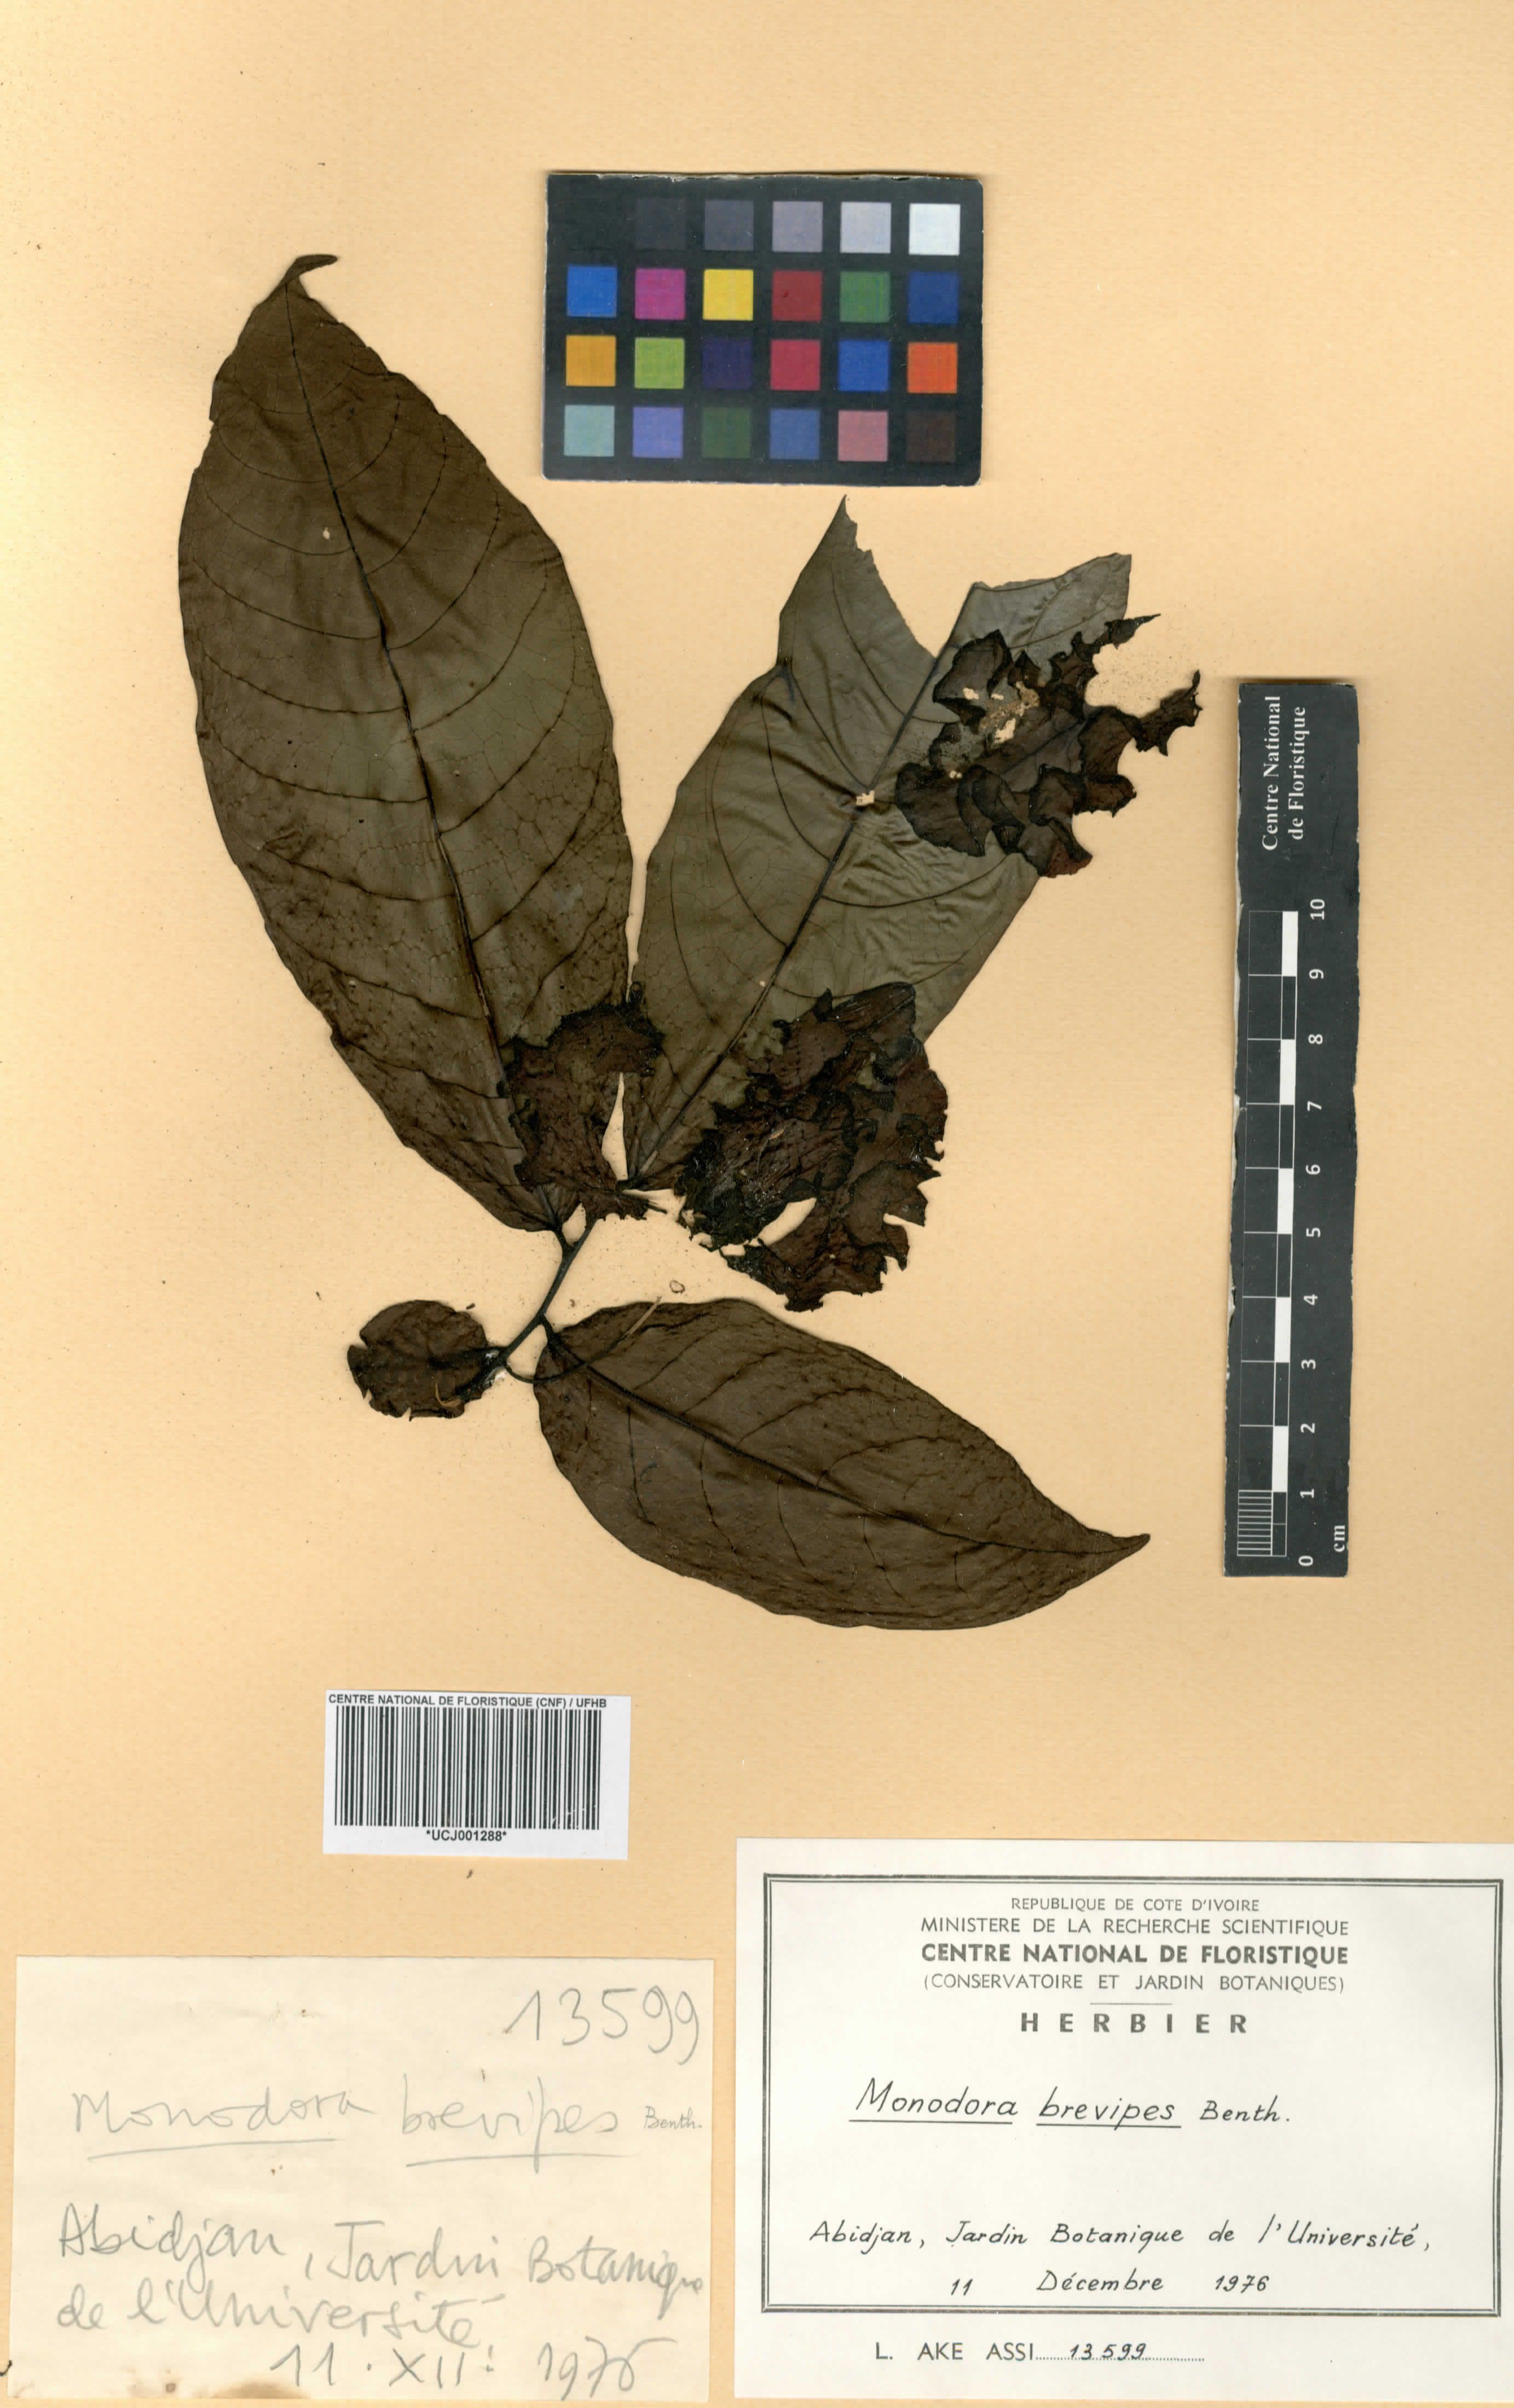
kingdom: Plantae
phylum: Tracheophyta
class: Magnoliopsida
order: Magnoliales
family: Annonaceae
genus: Monodora
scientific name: Monodora undulata
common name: Yellow-flower-nutmeg
